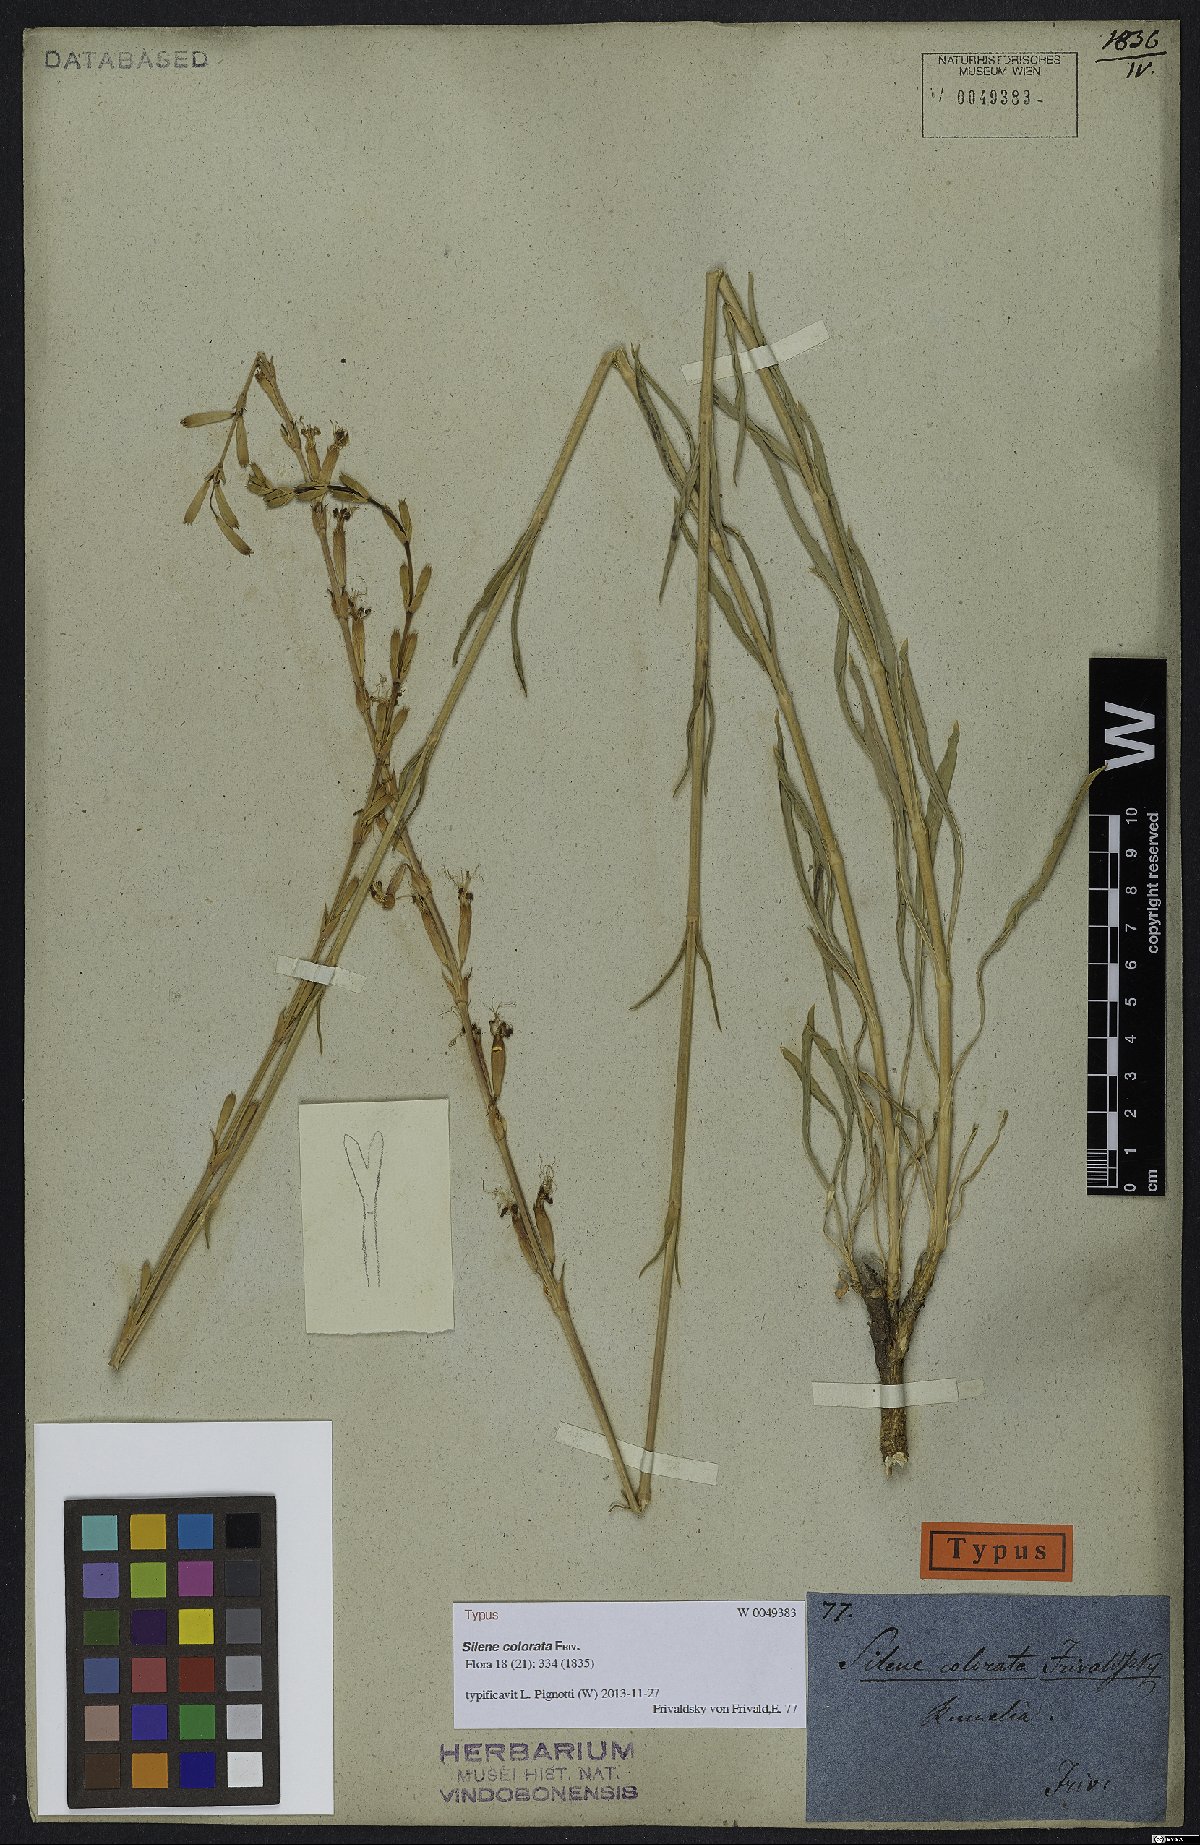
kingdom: Plantae
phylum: Tracheophyta
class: Magnoliopsida
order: Caryophyllales
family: Caryophyllaceae
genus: Silene
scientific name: Silene frivaldskyana
